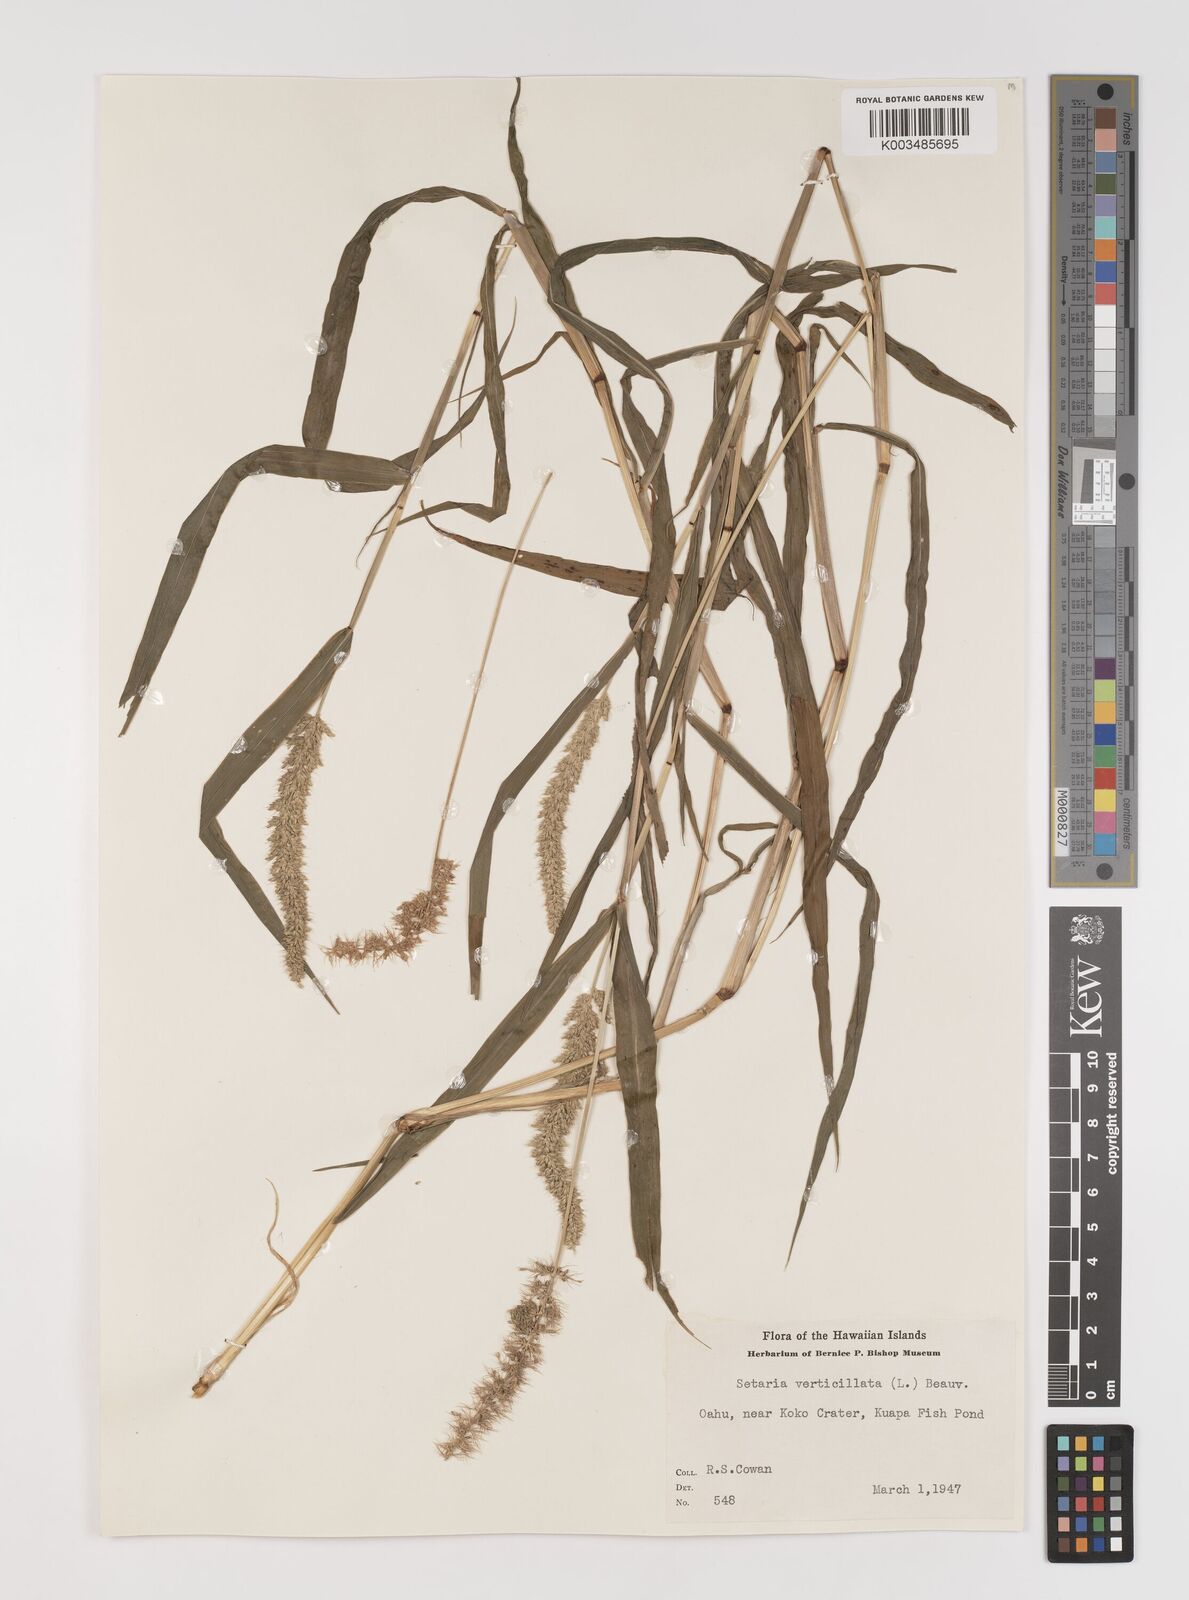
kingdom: Plantae
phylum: Tracheophyta
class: Liliopsida
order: Poales
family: Poaceae
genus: Setaria
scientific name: Setaria verticillata
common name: Hooked bristlegrass
